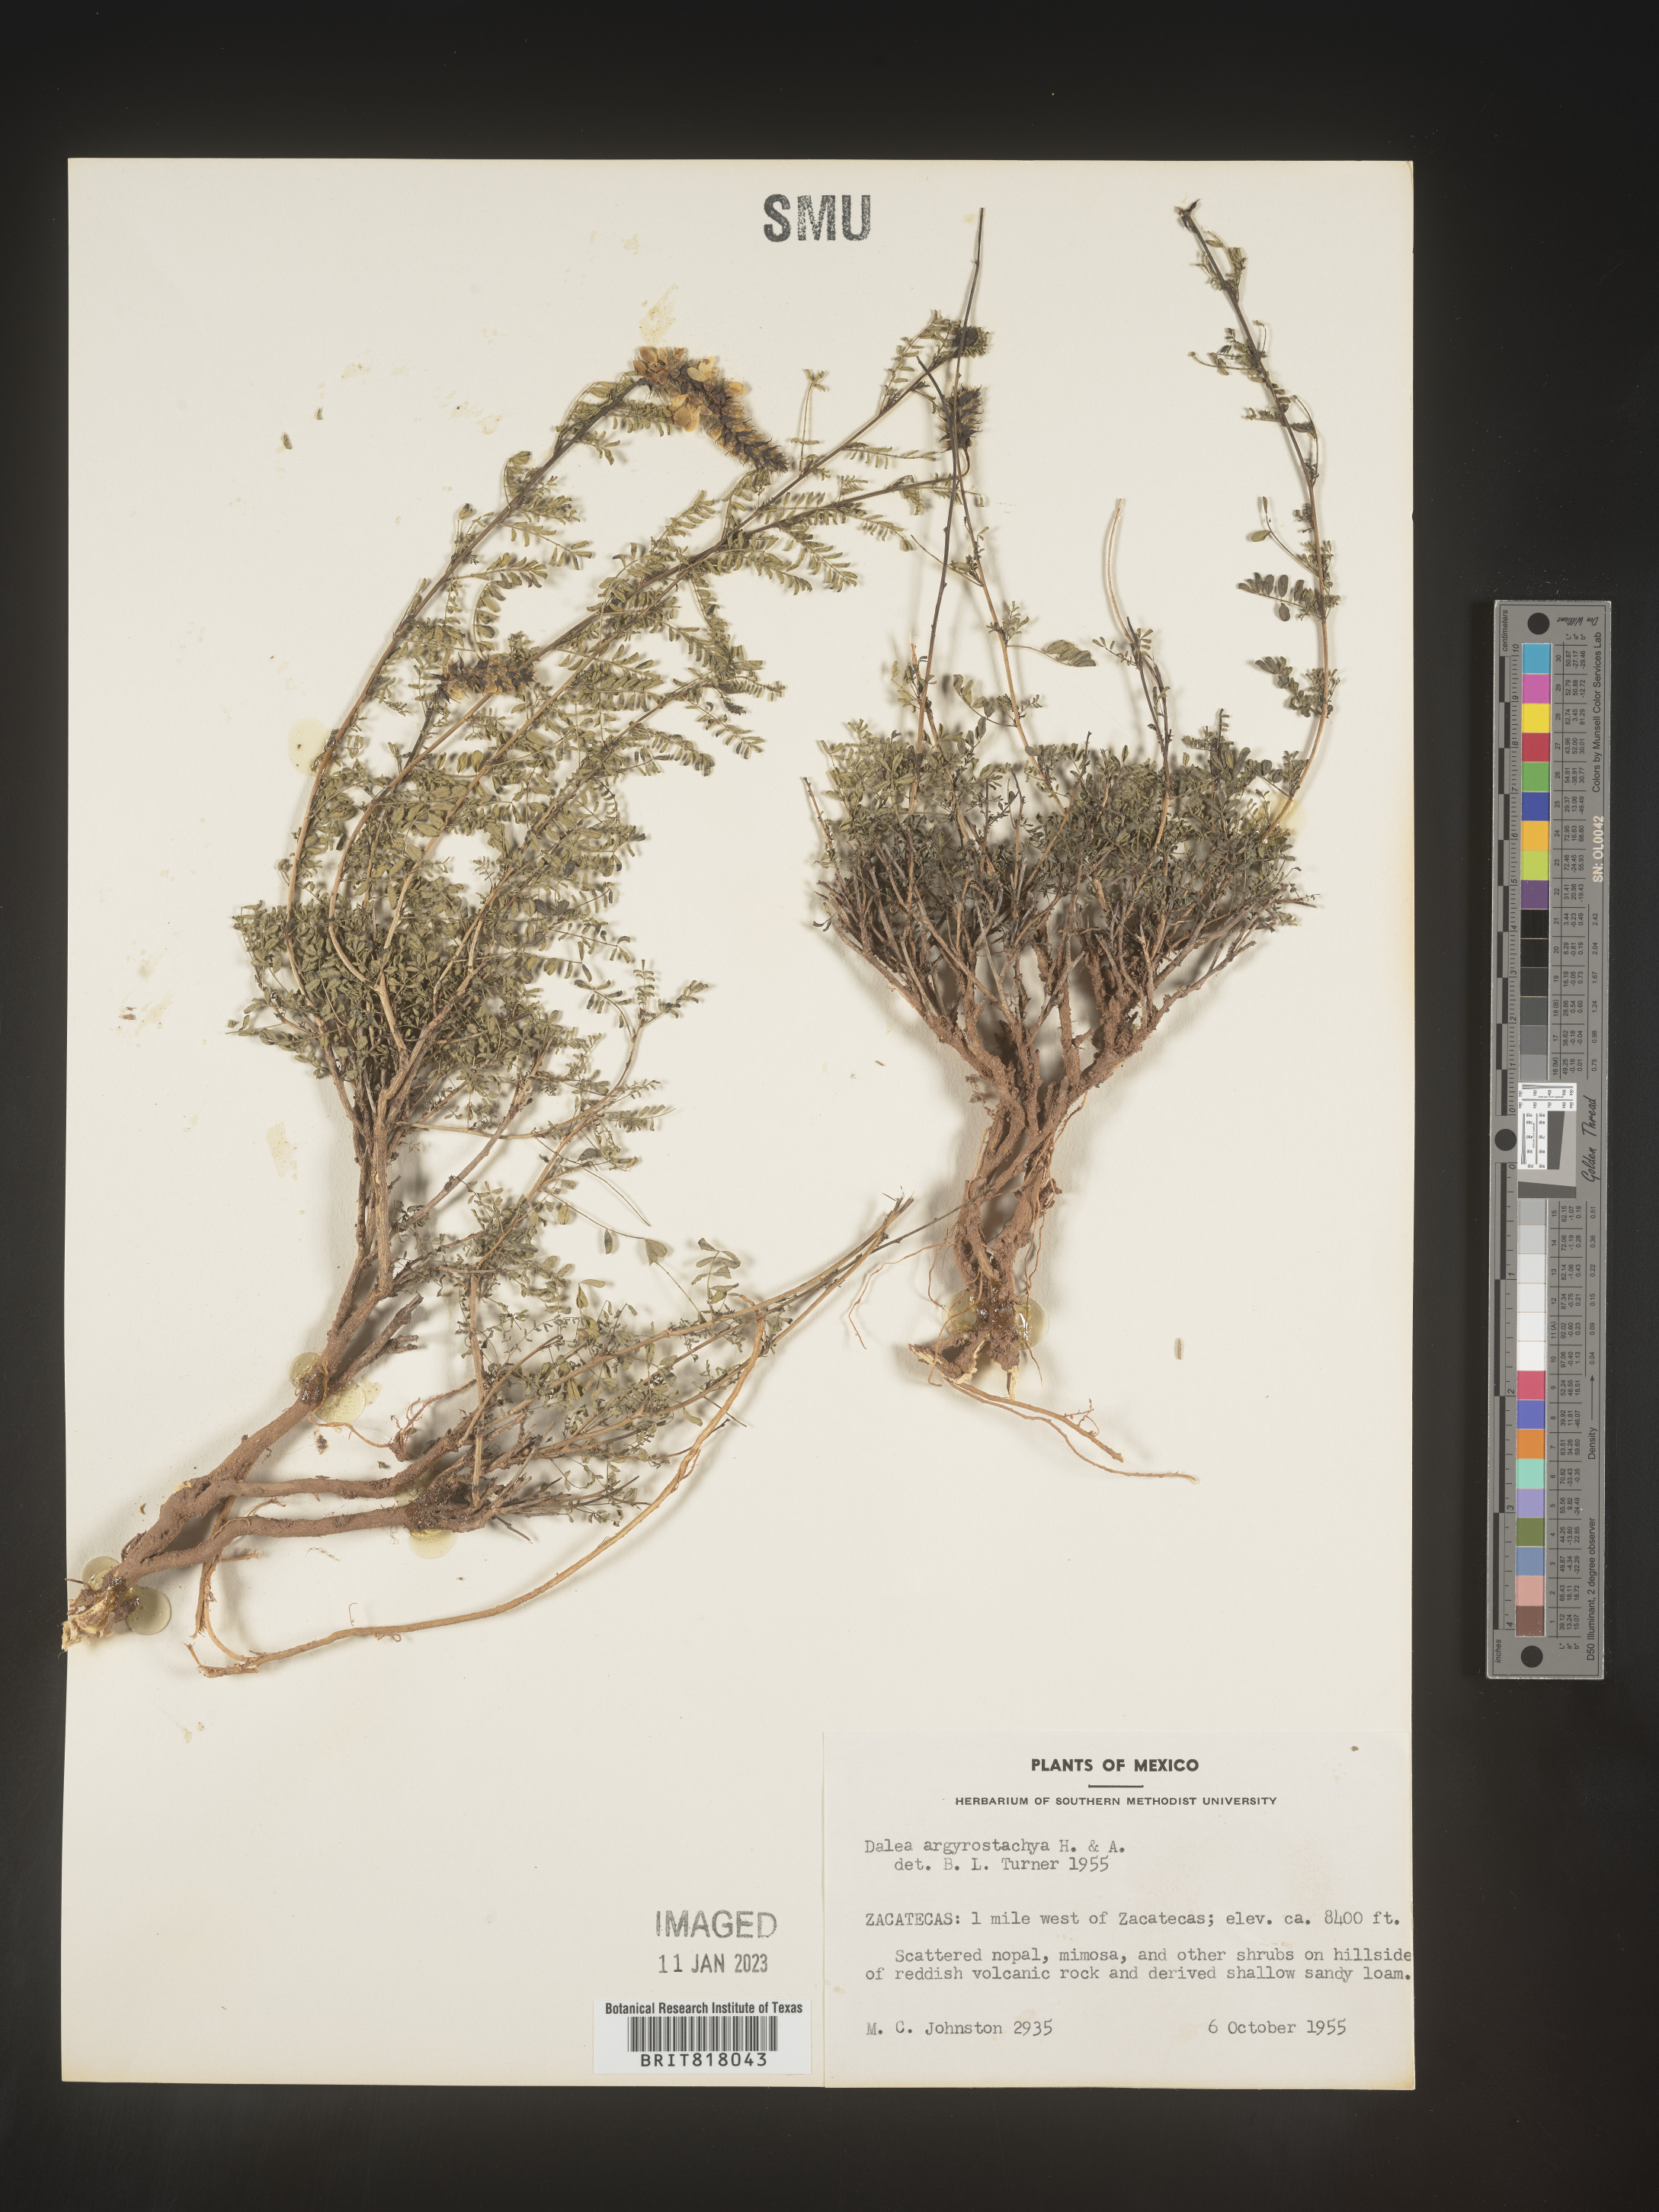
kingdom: Plantae
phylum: Tracheophyta
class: Magnoliopsida
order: Fabales
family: Fabaceae
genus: Dalea
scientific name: Dalea
